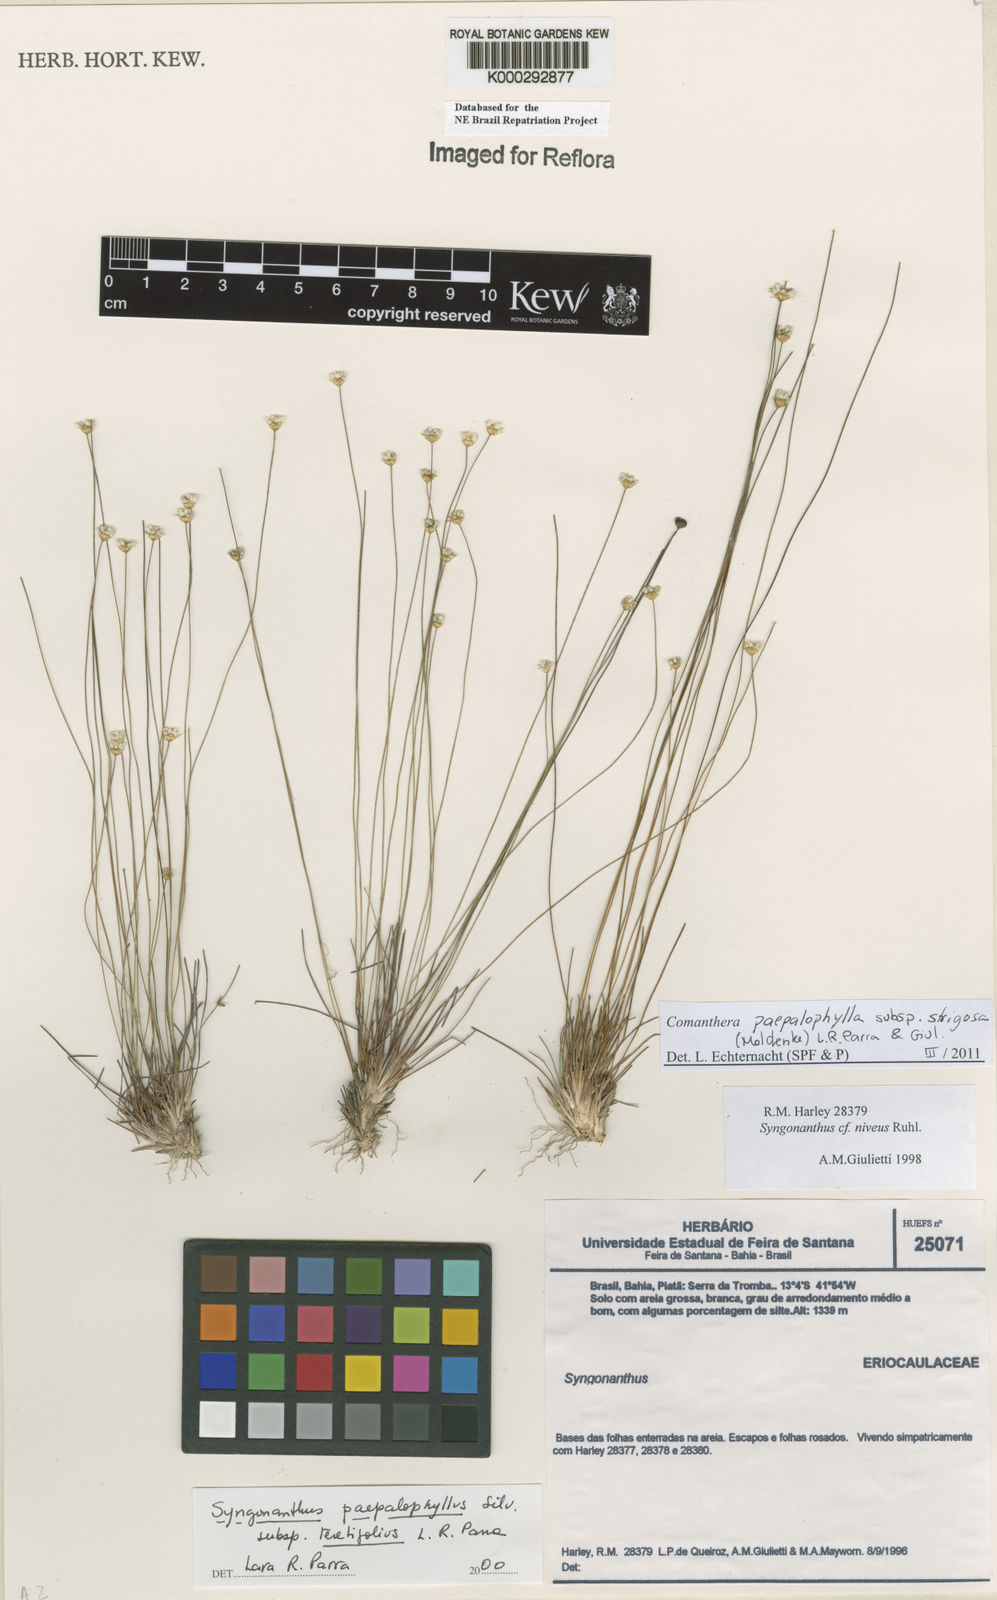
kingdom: Plantae
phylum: Tracheophyta
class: Liliopsida
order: Poales
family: Eriocaulaceae
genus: Comanthera
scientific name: Comanthera paepalophylla
